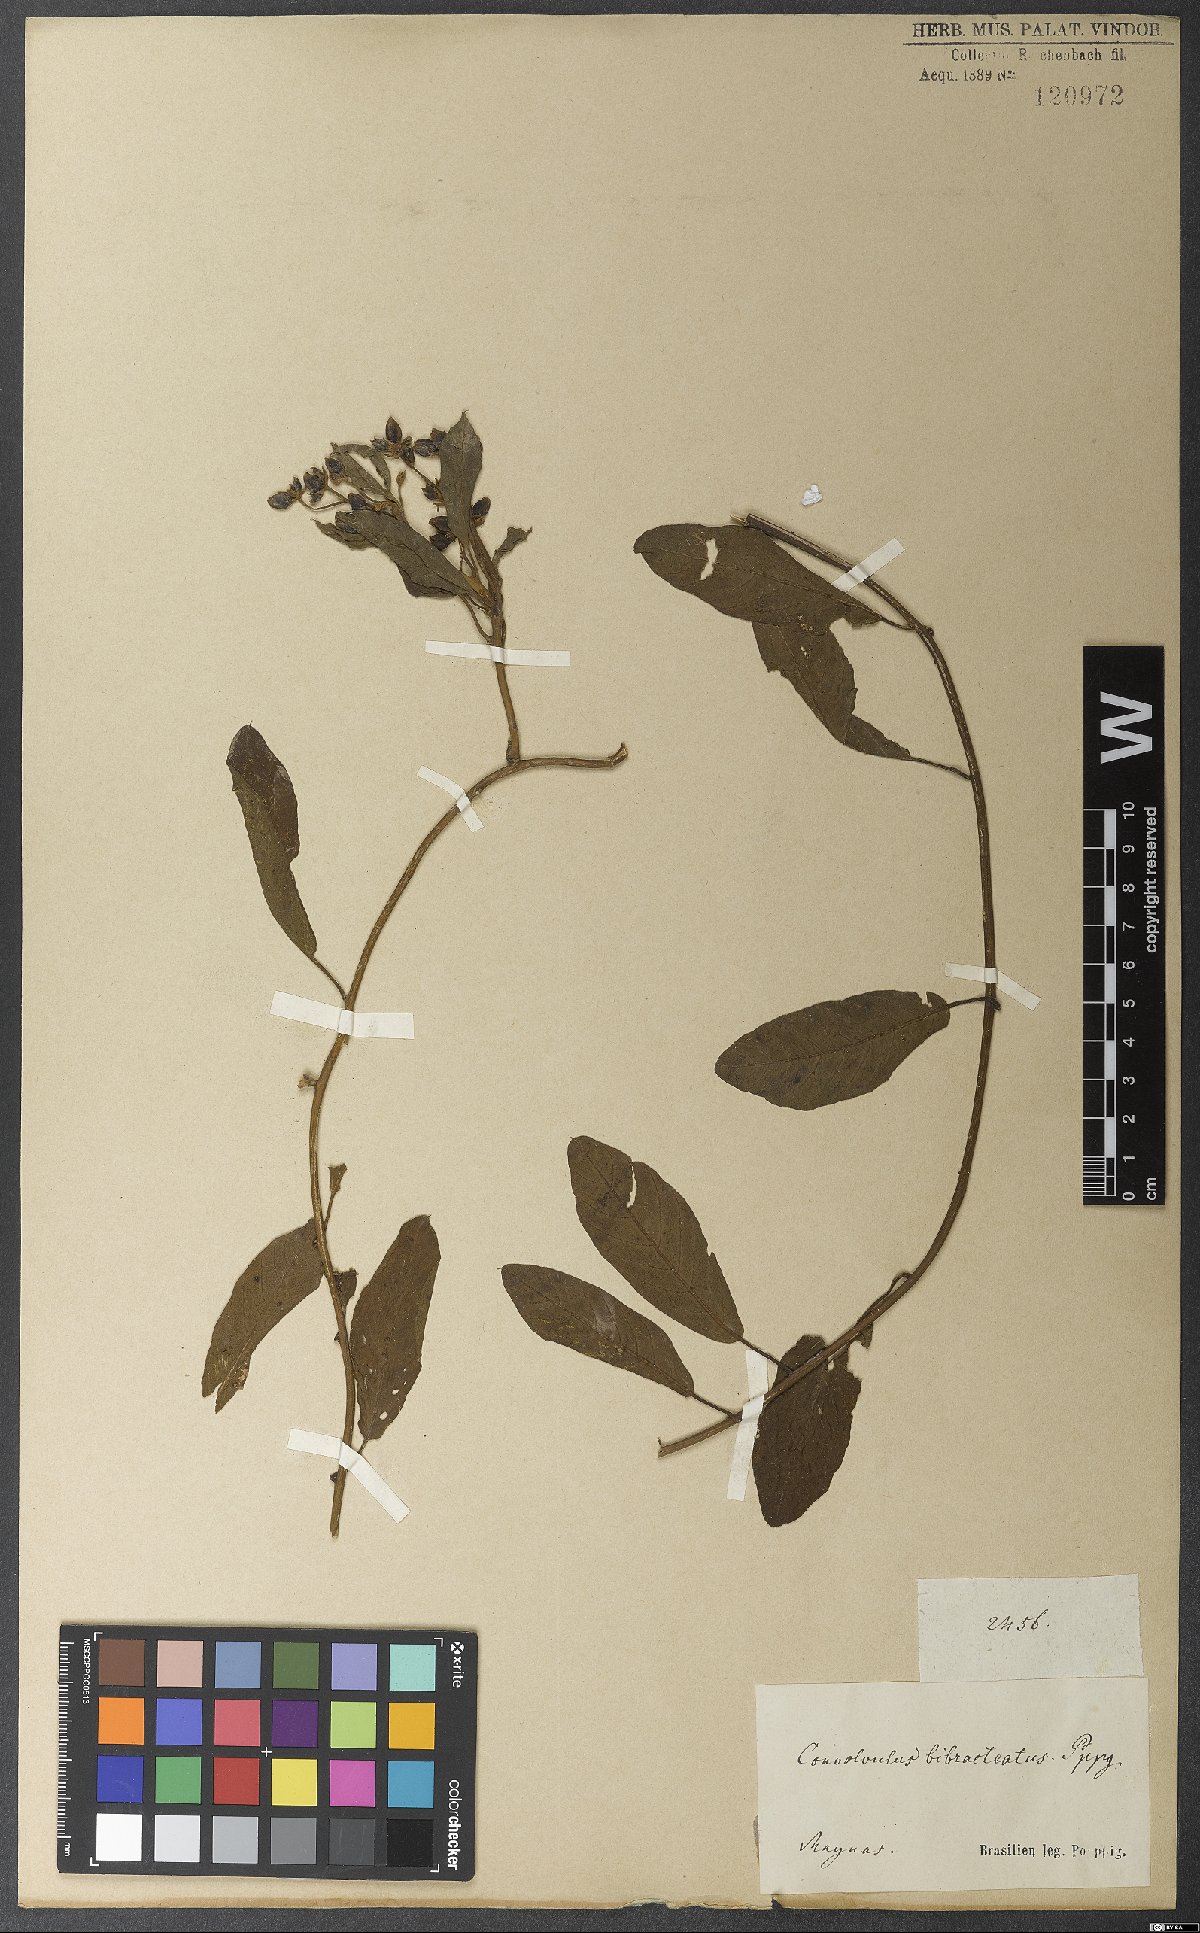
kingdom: Plantae
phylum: Tracheophyta
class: Magnoliopsida
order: Solanales
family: Convolvulaceae
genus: Aniseia
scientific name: Aniseia luxurians
